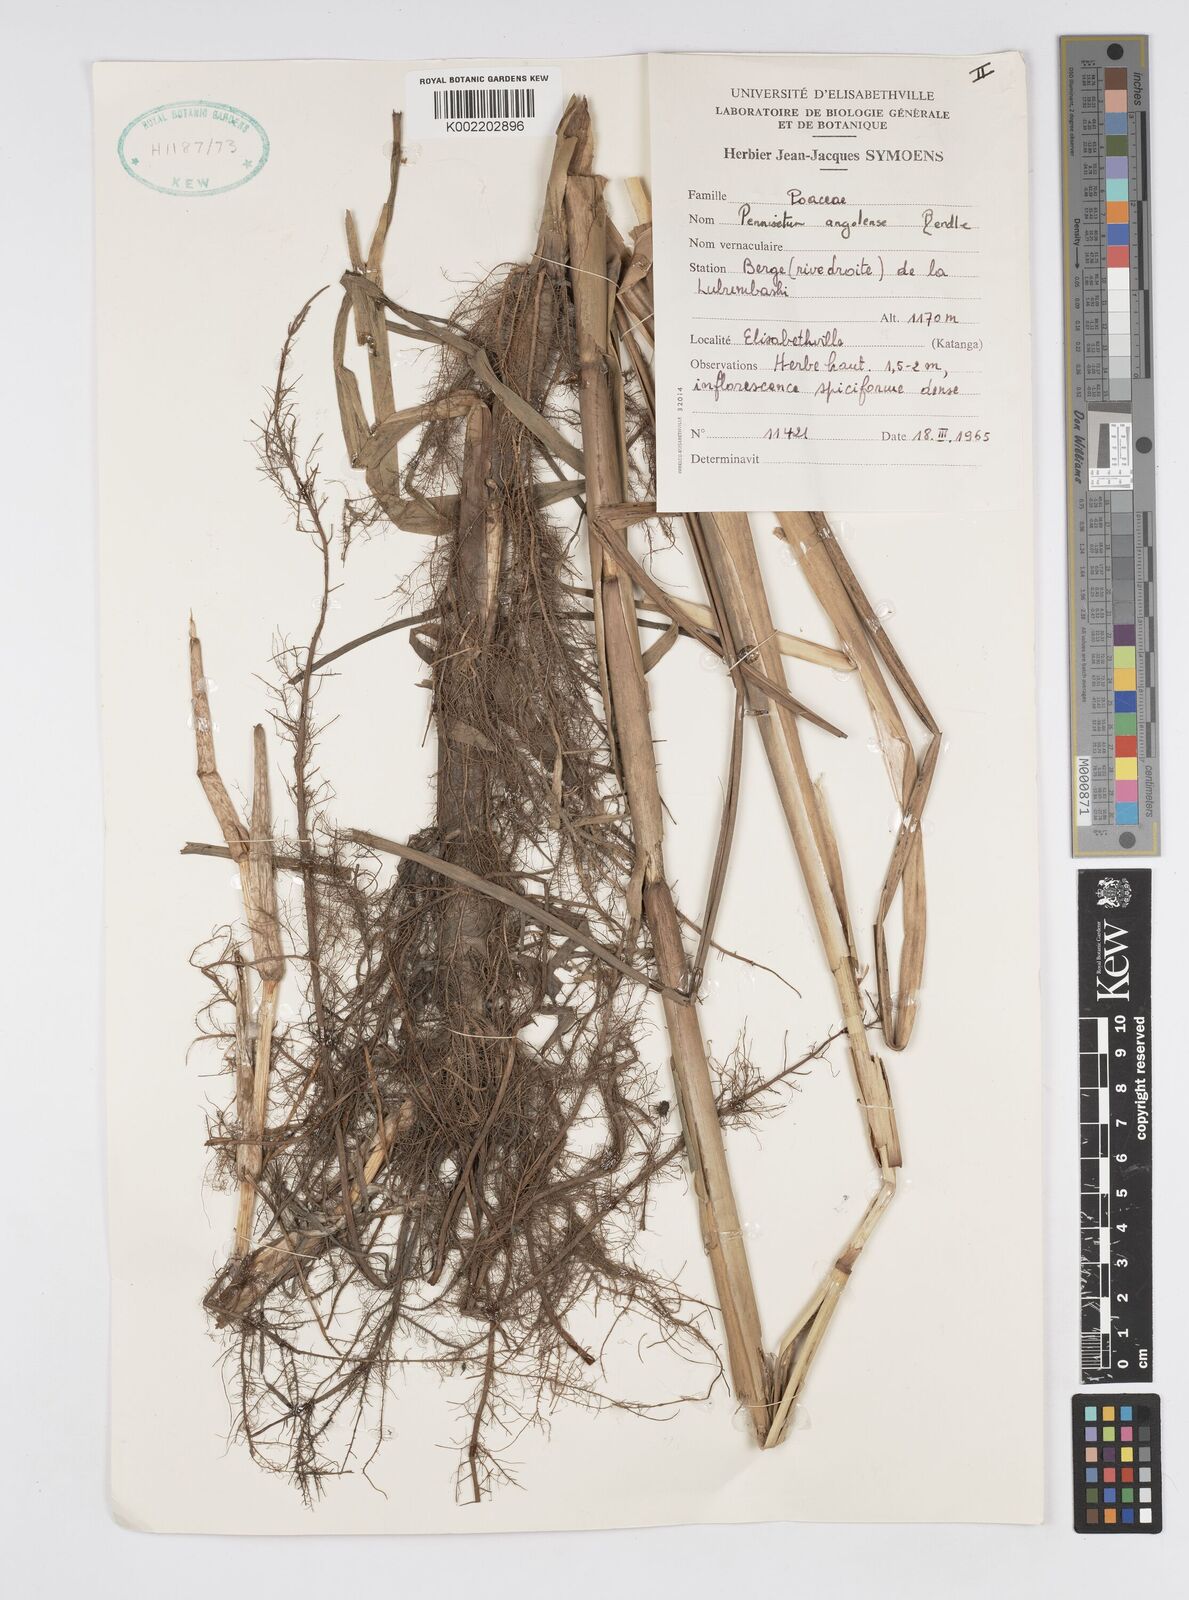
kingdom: Plantae
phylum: Tracheophyta
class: Liliopsida
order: Poales
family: Poaceae
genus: Cenchrus
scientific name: Cenchrus caudatus
